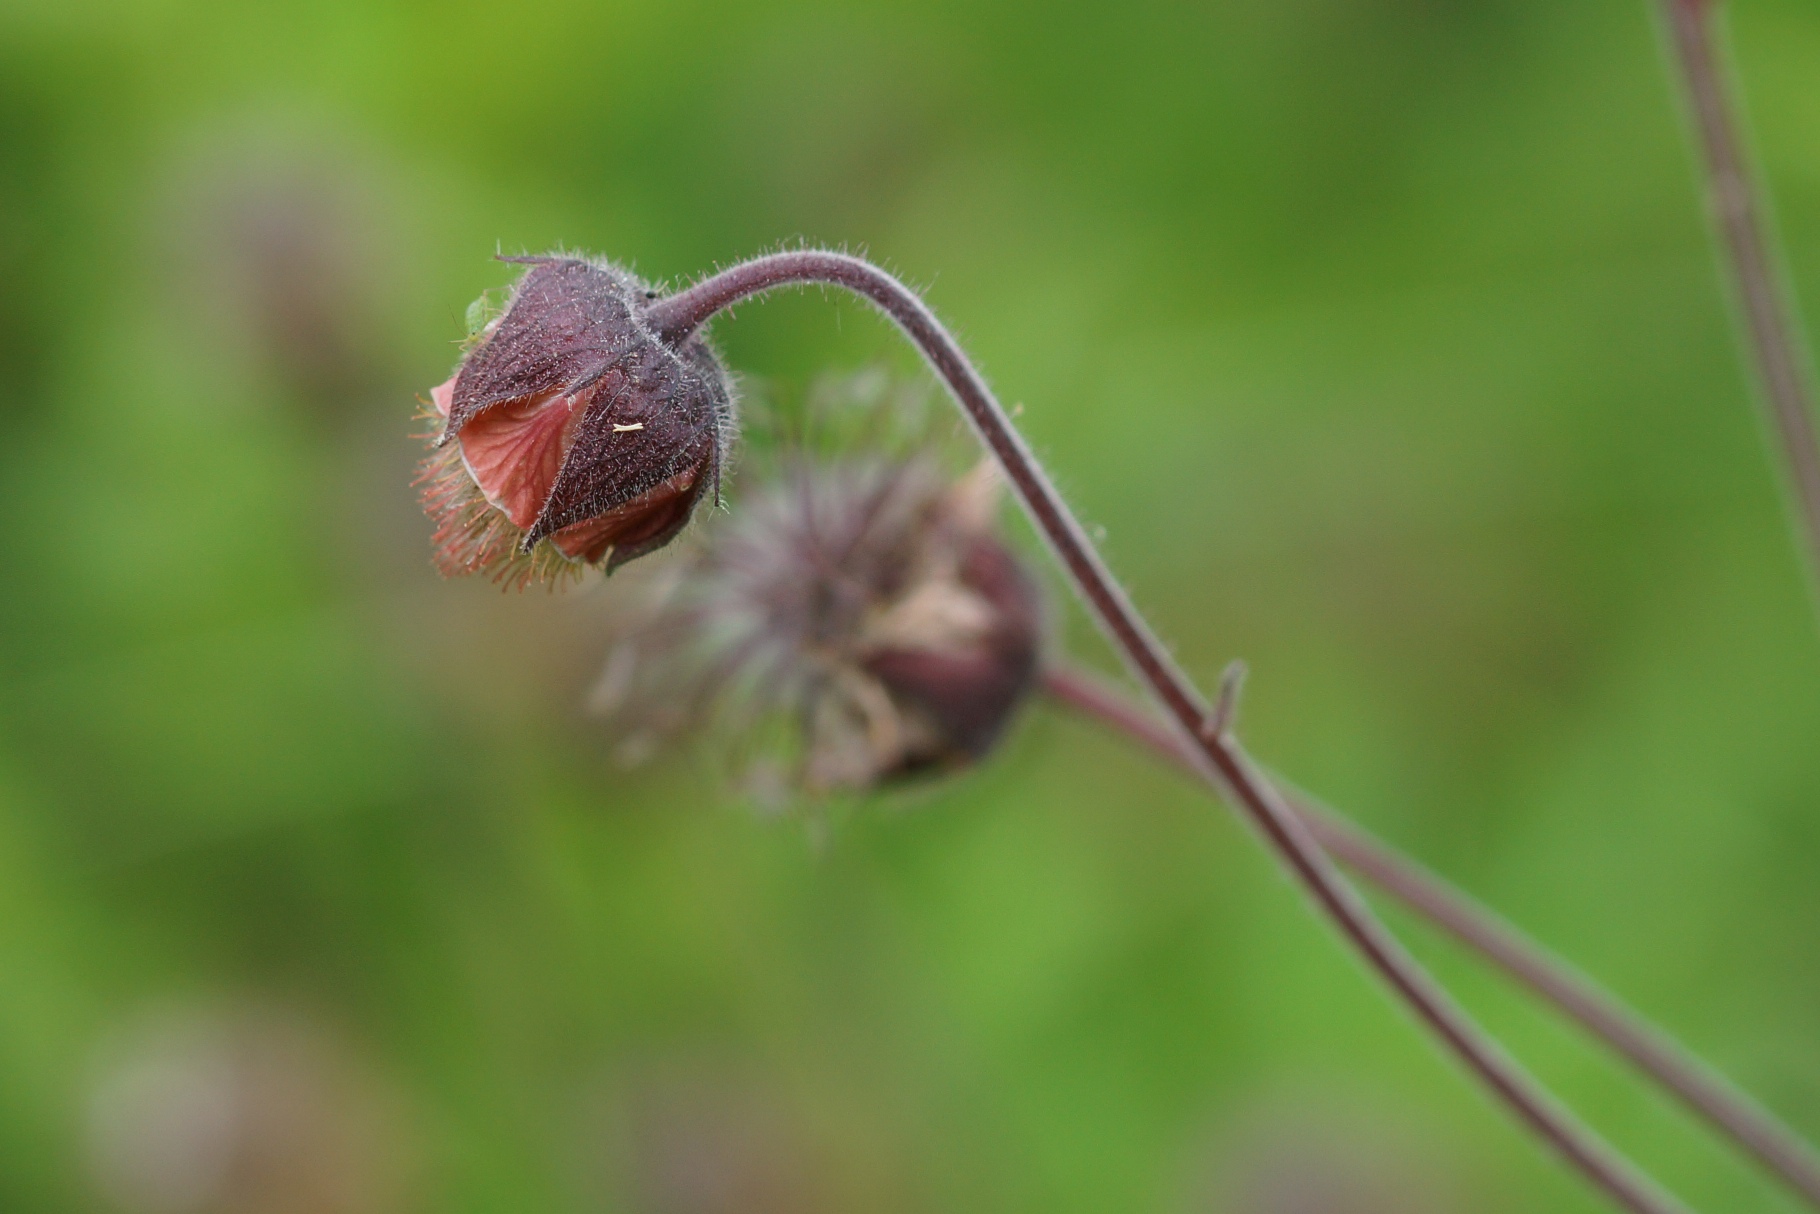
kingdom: Plantae
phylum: Tracheophyta
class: Magnoliopsida
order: Rosales
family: Rosaceae
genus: Geum
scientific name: Geum rivale
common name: Eng-nellikerod
